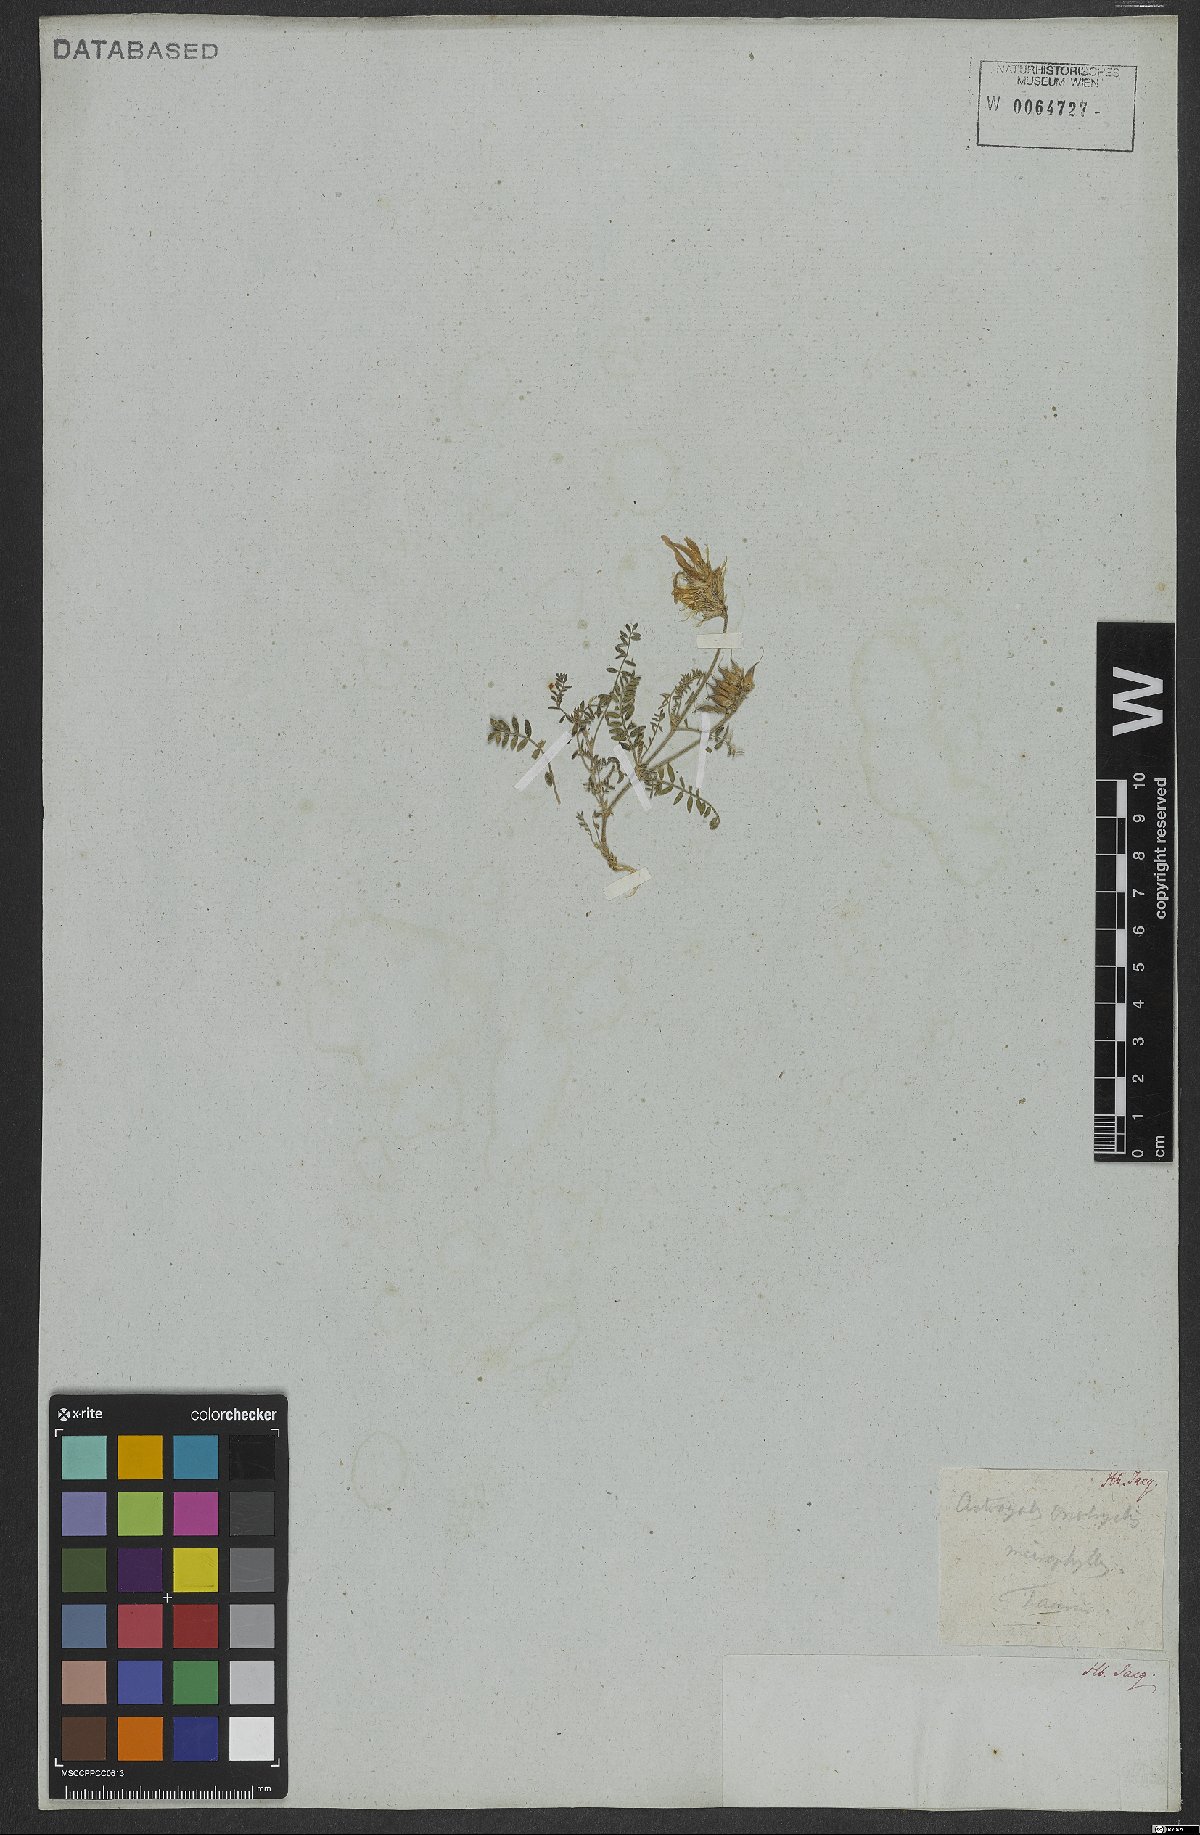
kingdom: Plantae
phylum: Tracheophyta
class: Magnoliopsida
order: Fabales
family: Fabaceae
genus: Astragalus
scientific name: Astragalus onobrychis
